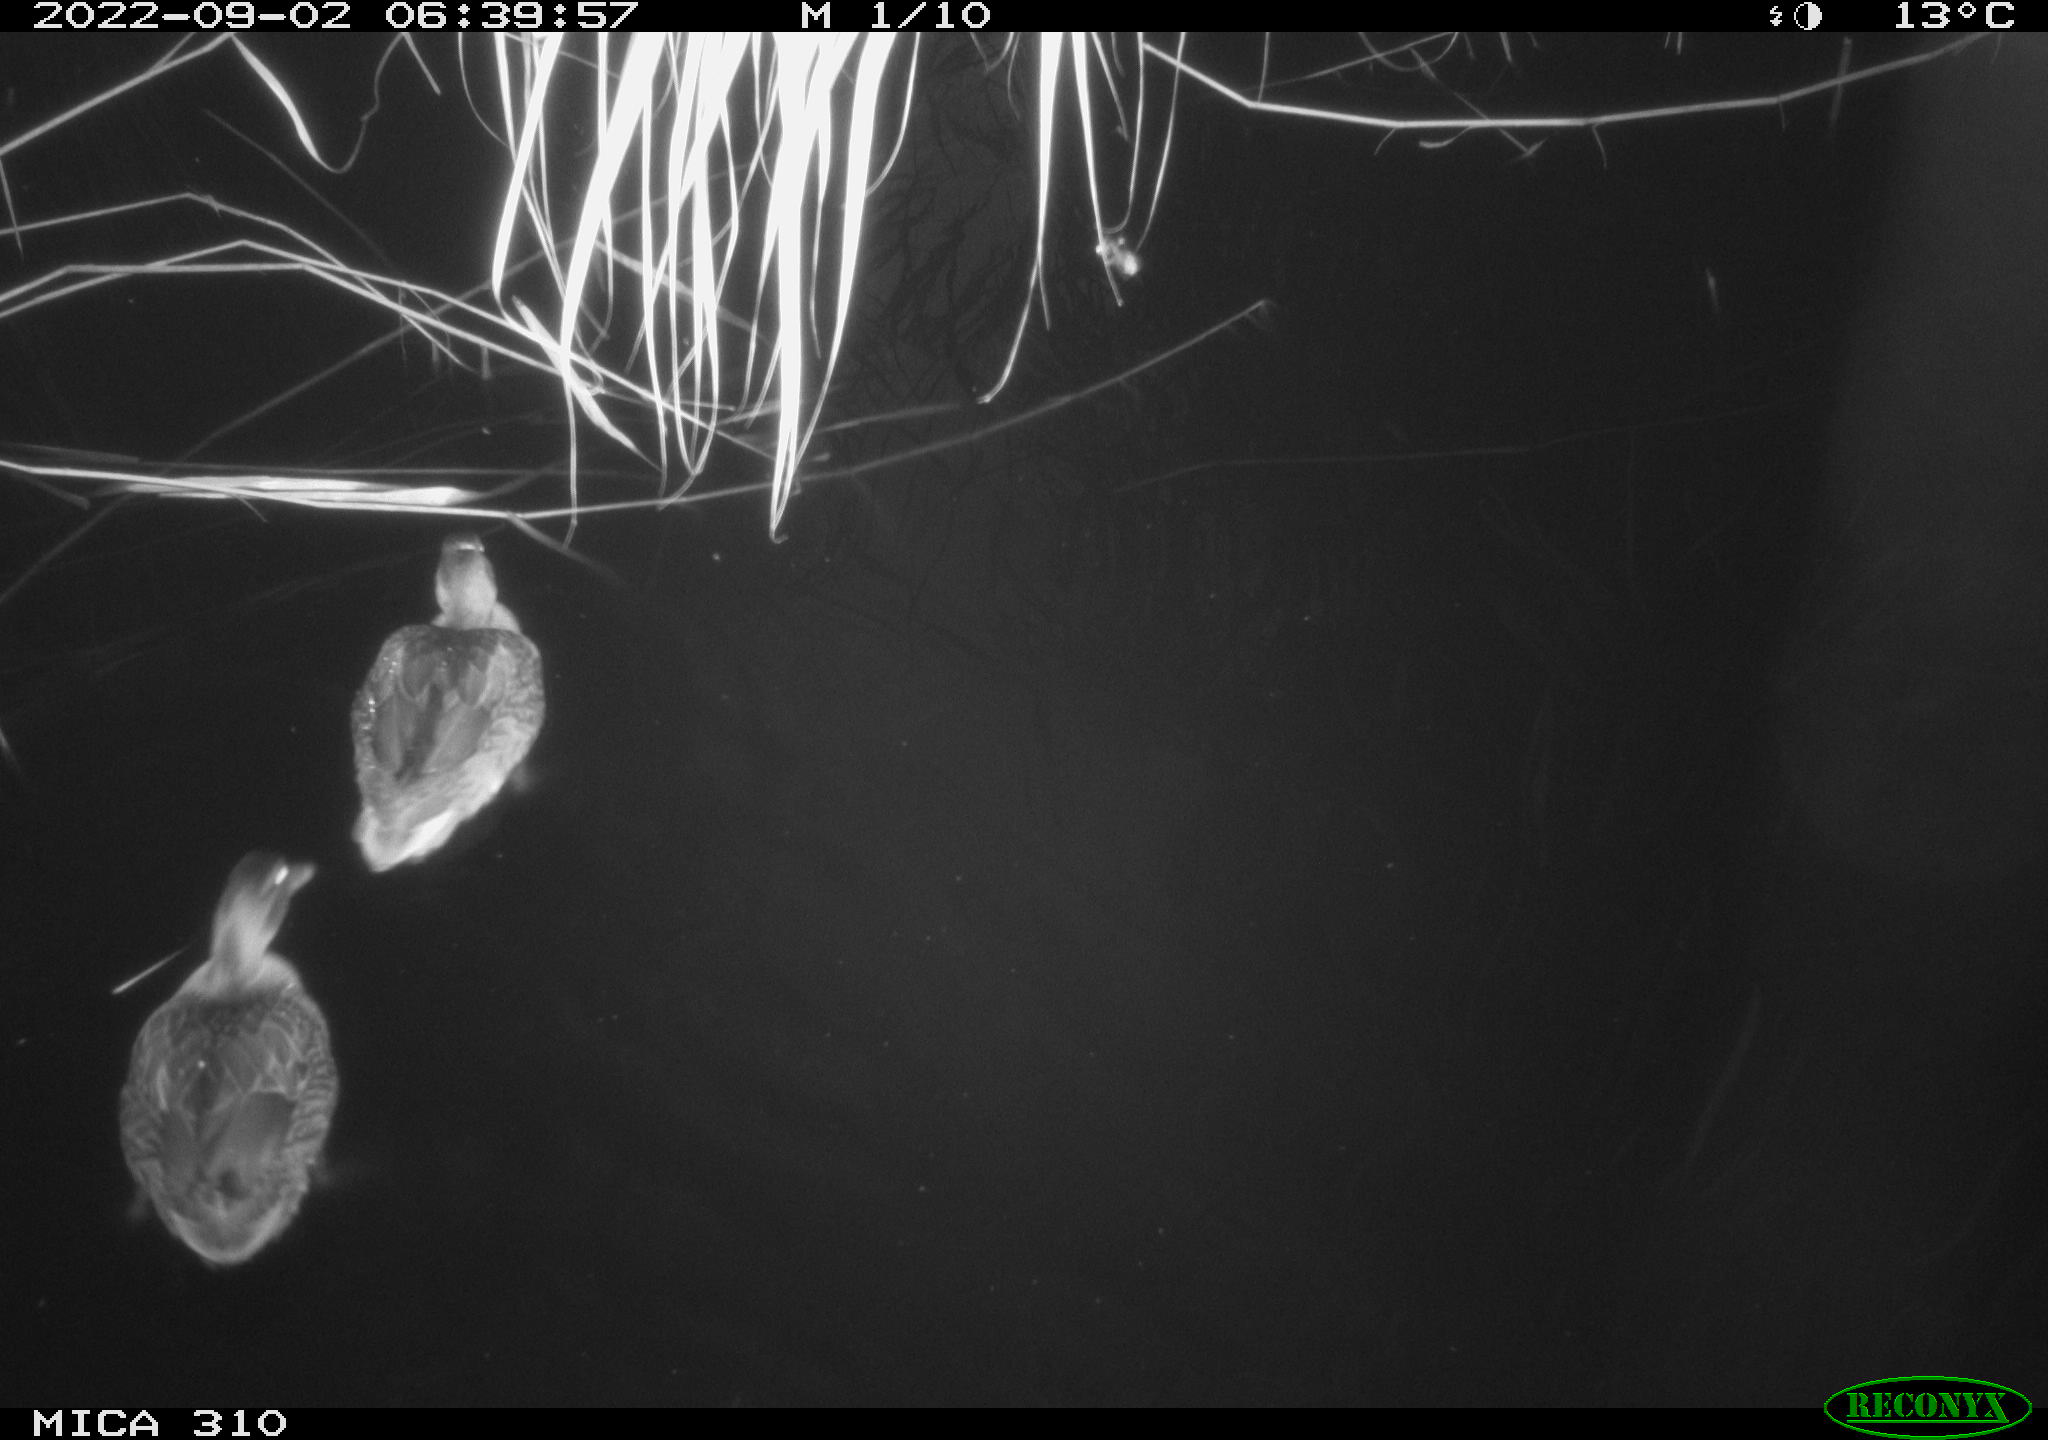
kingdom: Animalia
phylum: Chordata
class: Aves
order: Anseriformes
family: Anatidae
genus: Anas
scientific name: Anas platyrhynchos
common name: Mallard
